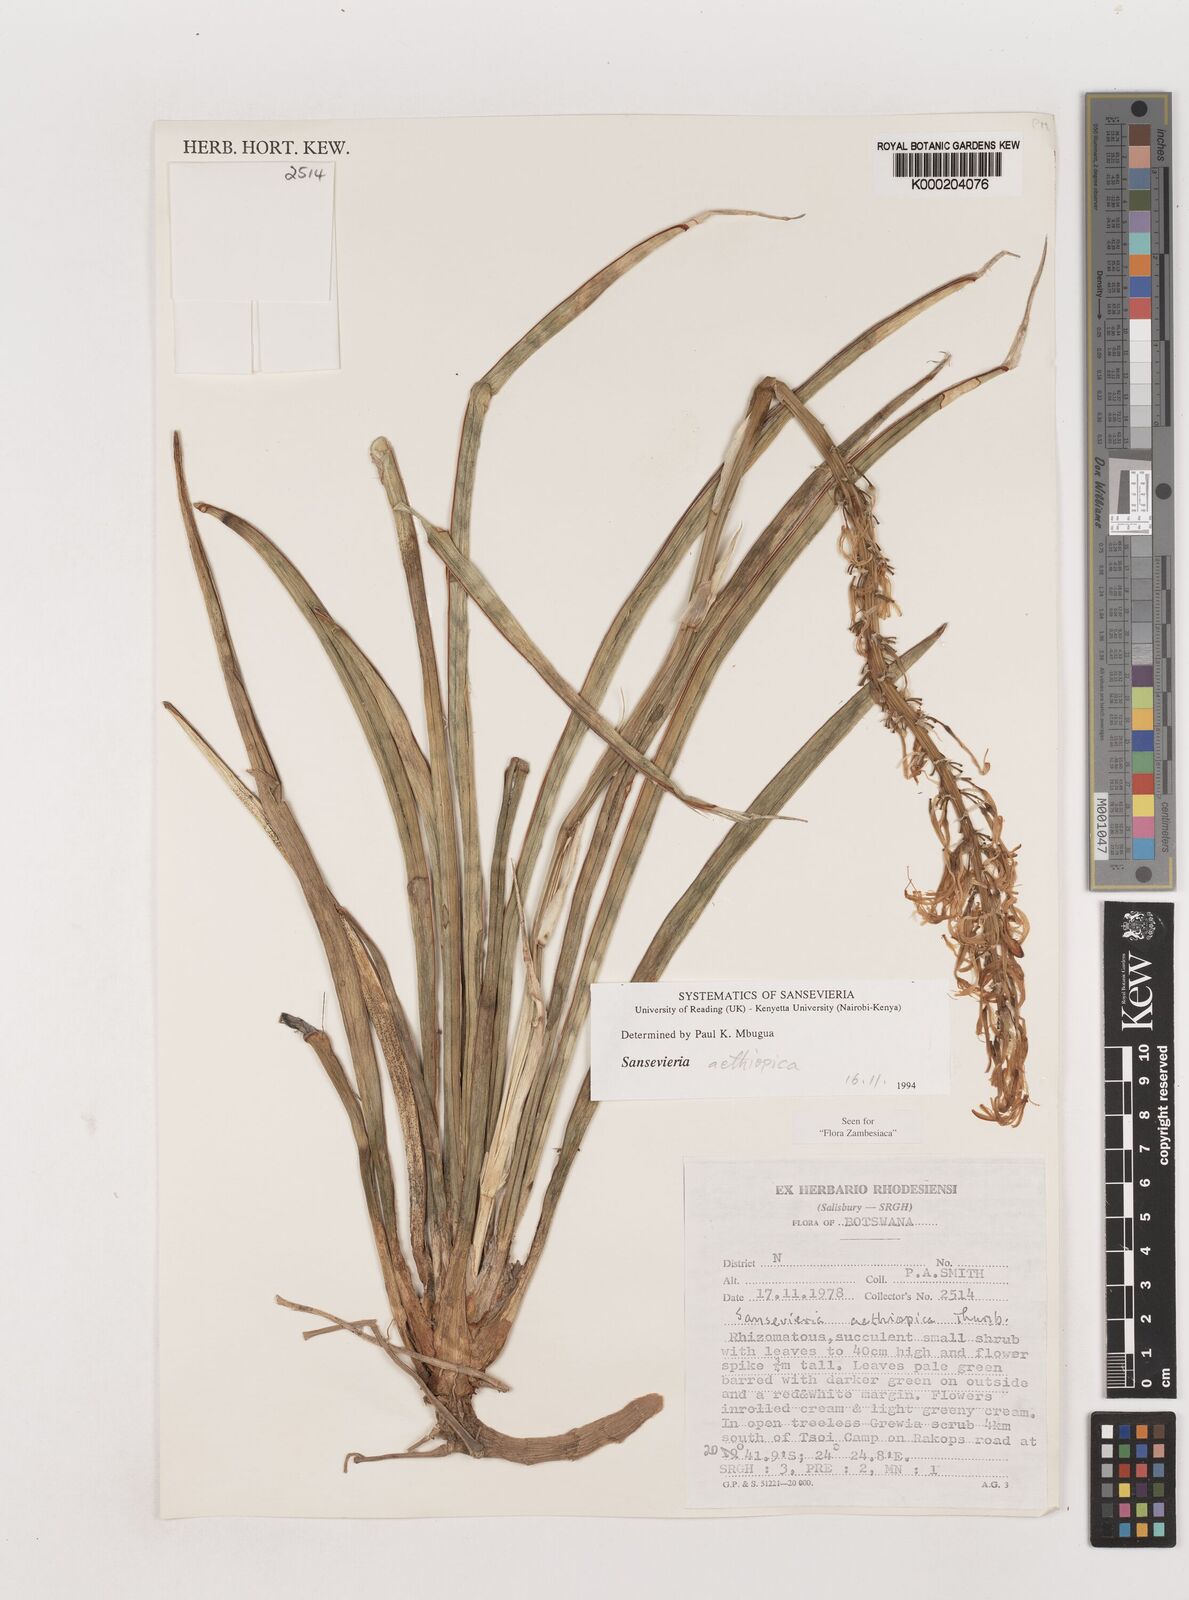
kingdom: Plantae
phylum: Tracheophyta
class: Liliopsida
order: Asparagales
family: Asparagaceae
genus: Dracaena
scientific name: Dracaena aethiopica
